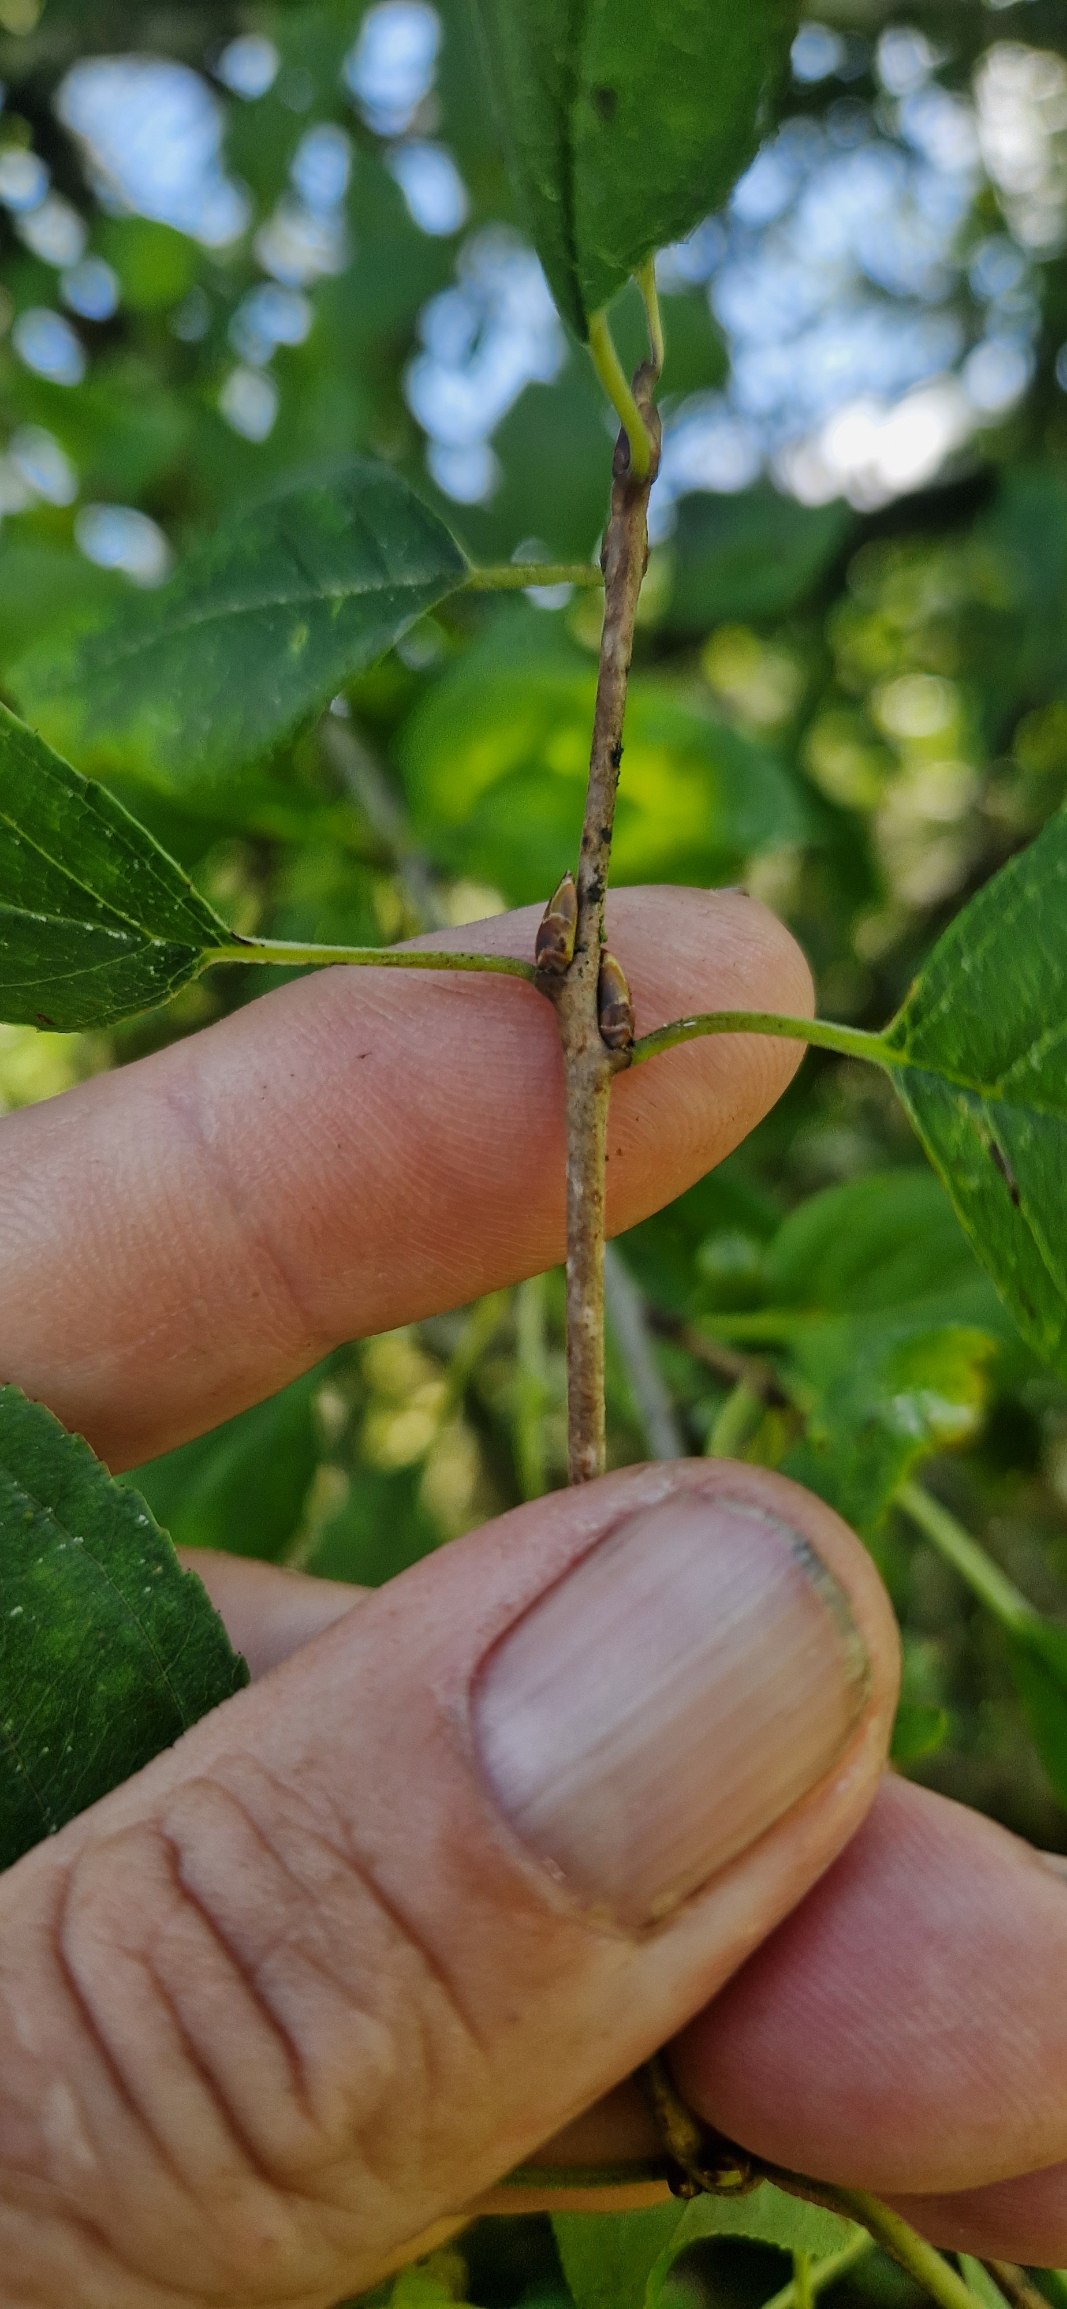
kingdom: Plantae
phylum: Tracheophyta
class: Magnoliopsida
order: Rosales
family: Rhamnaceae
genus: Rhamnus
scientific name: Rhamnus cathartica
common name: Vrietorn
